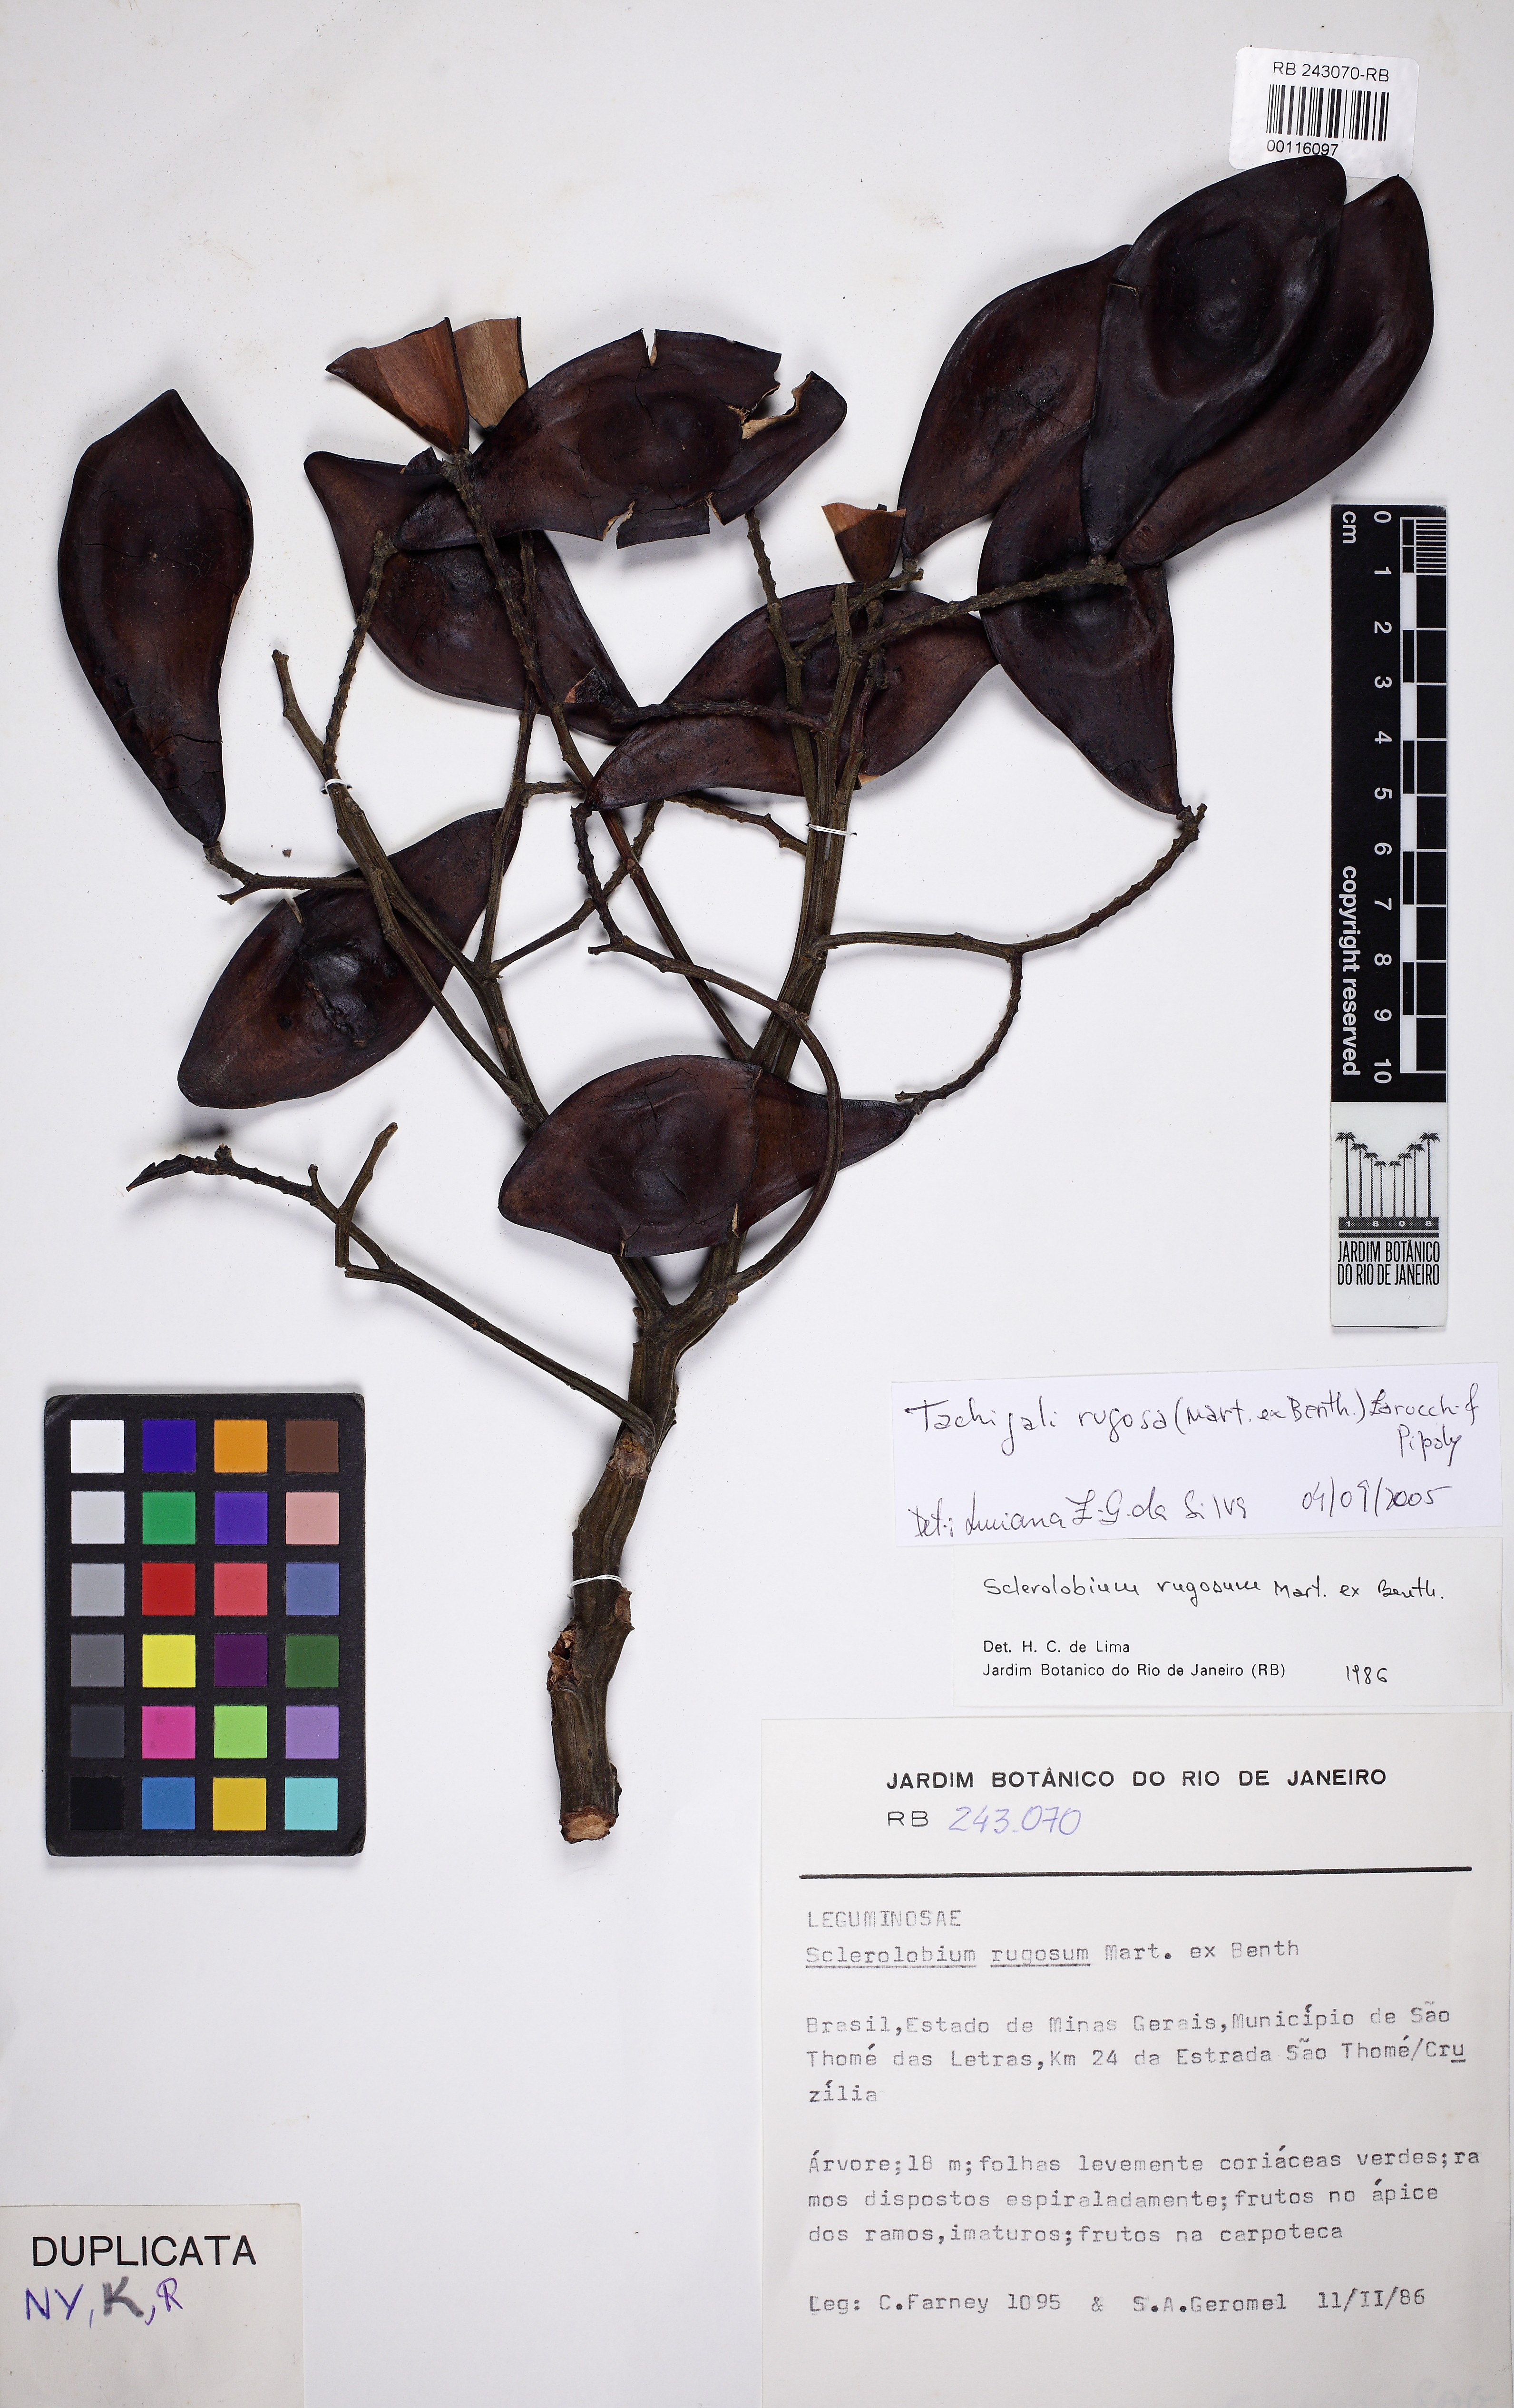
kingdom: Plantae
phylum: Tracheophyta
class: Magnoliopsida
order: Fabales
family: Fabaceae
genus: Tachigali
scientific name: Tachigali rugosa
